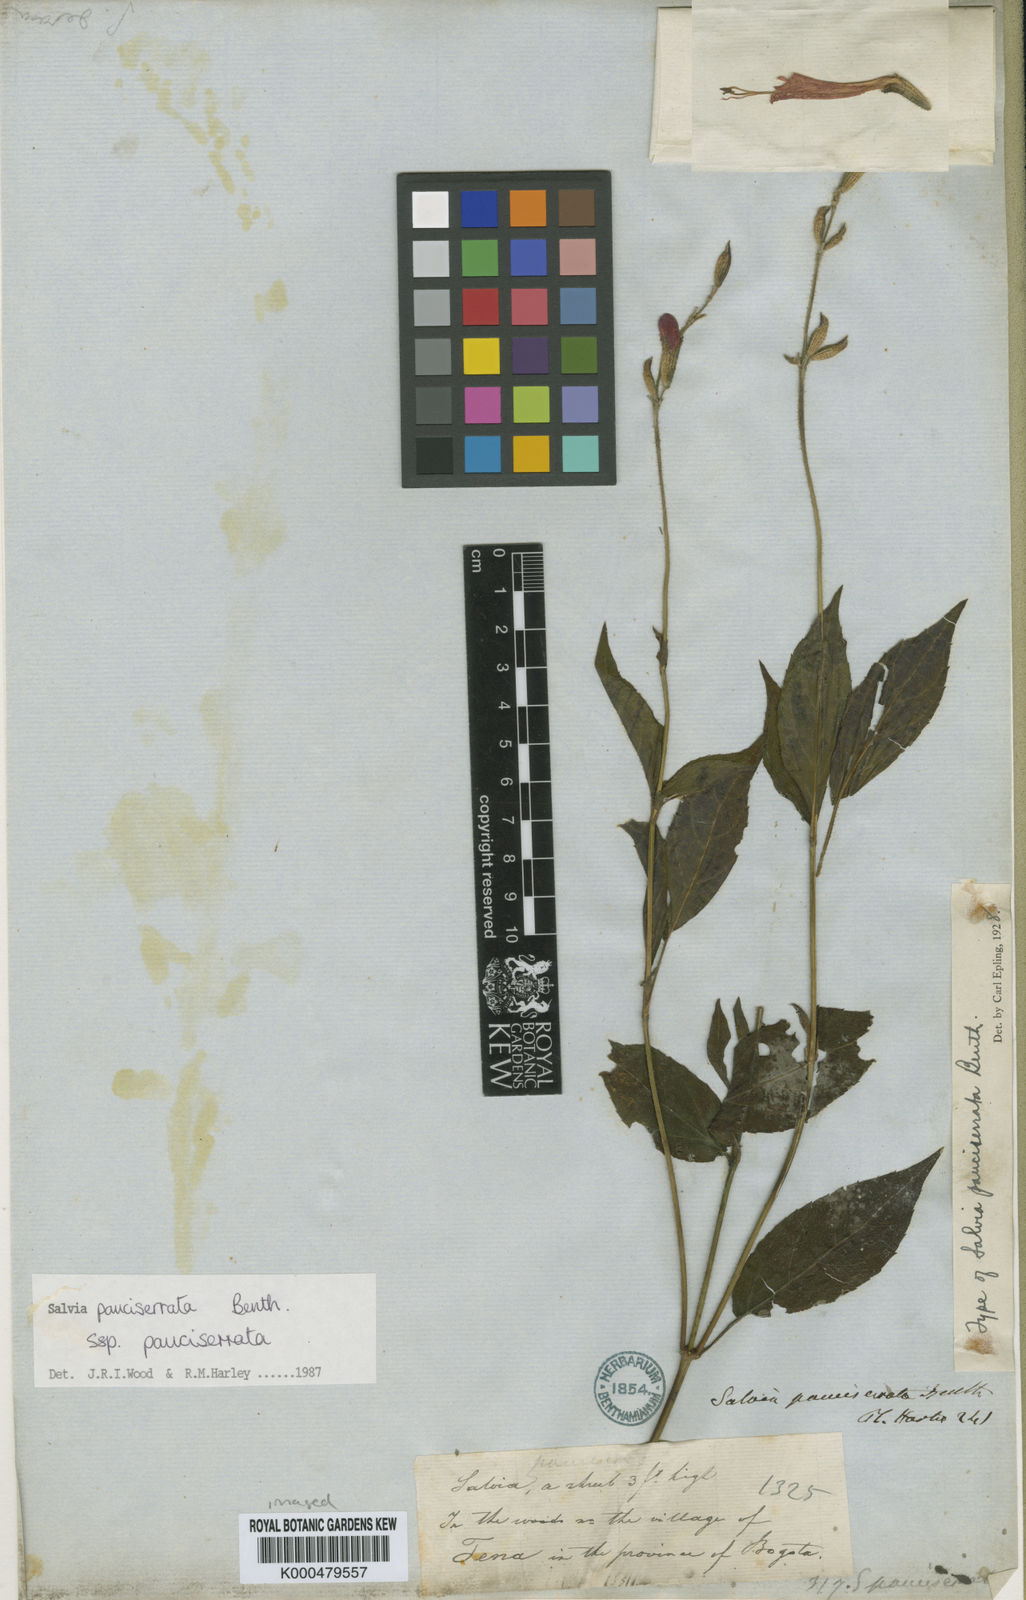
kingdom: Plantae
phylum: Tracheophyta
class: Magnoliopsida
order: Lamiales
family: Lamiaceae
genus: Salvia
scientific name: Salvia pauciserrata
